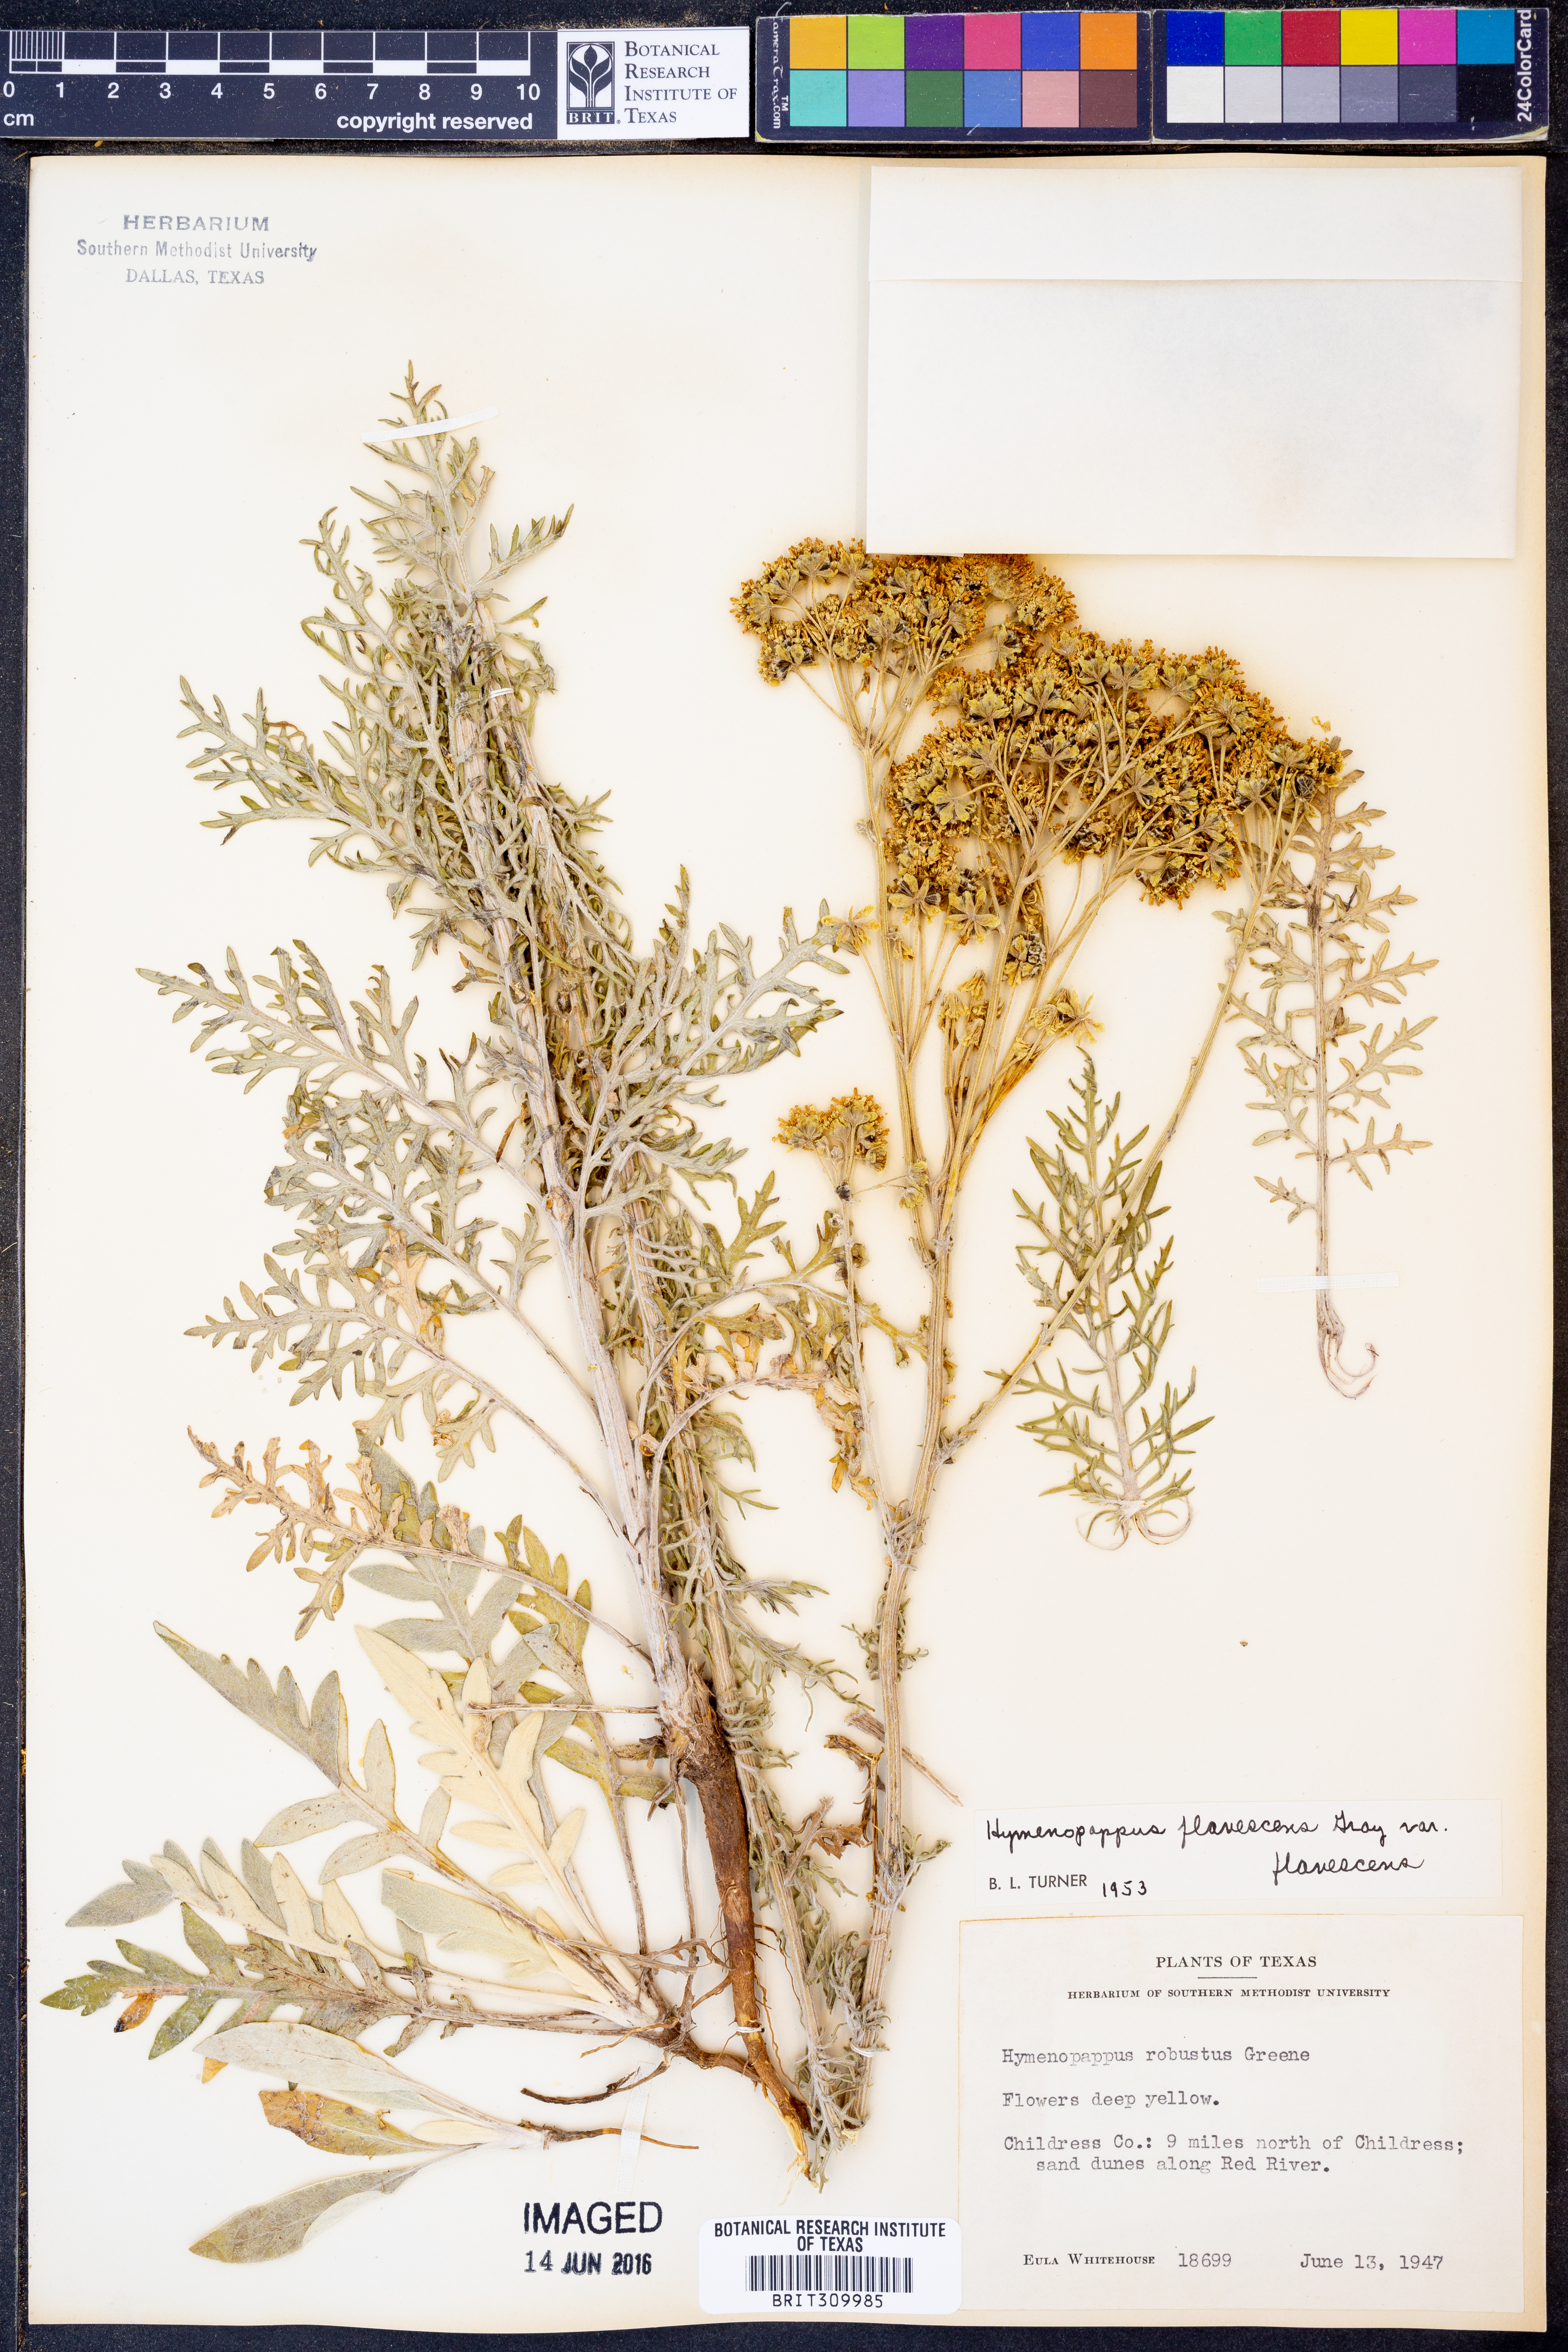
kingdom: Plantae
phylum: Tracheophyta
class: Magnoliopsida
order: Asterales
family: Asteraceae
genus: Hymenopappus
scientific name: Hymenopappus flavescens
